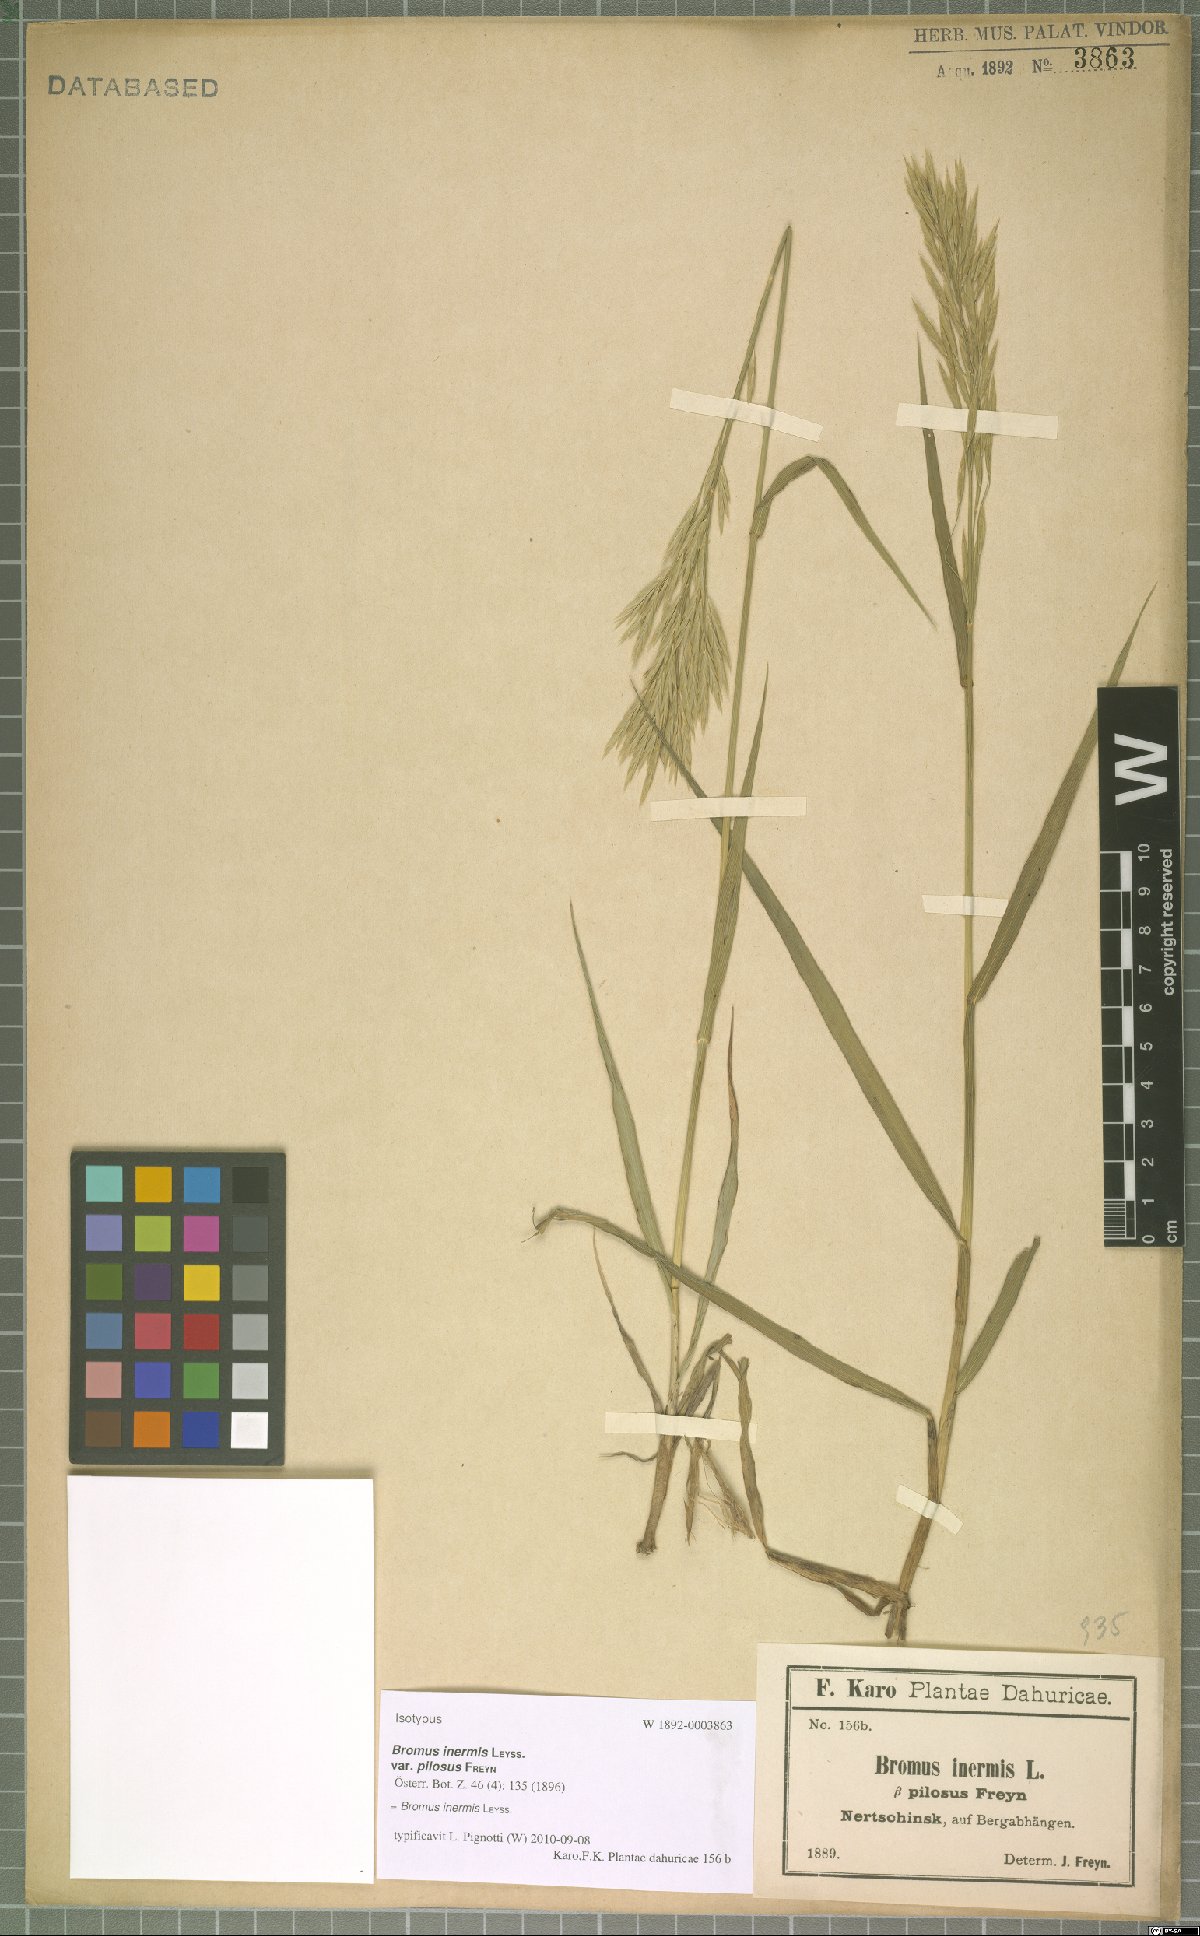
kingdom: Plantae
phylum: Tracheophyta
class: Liliopsida
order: Poales
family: Poaceae
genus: Bromus
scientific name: Bromus inermis
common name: Smooth brome
